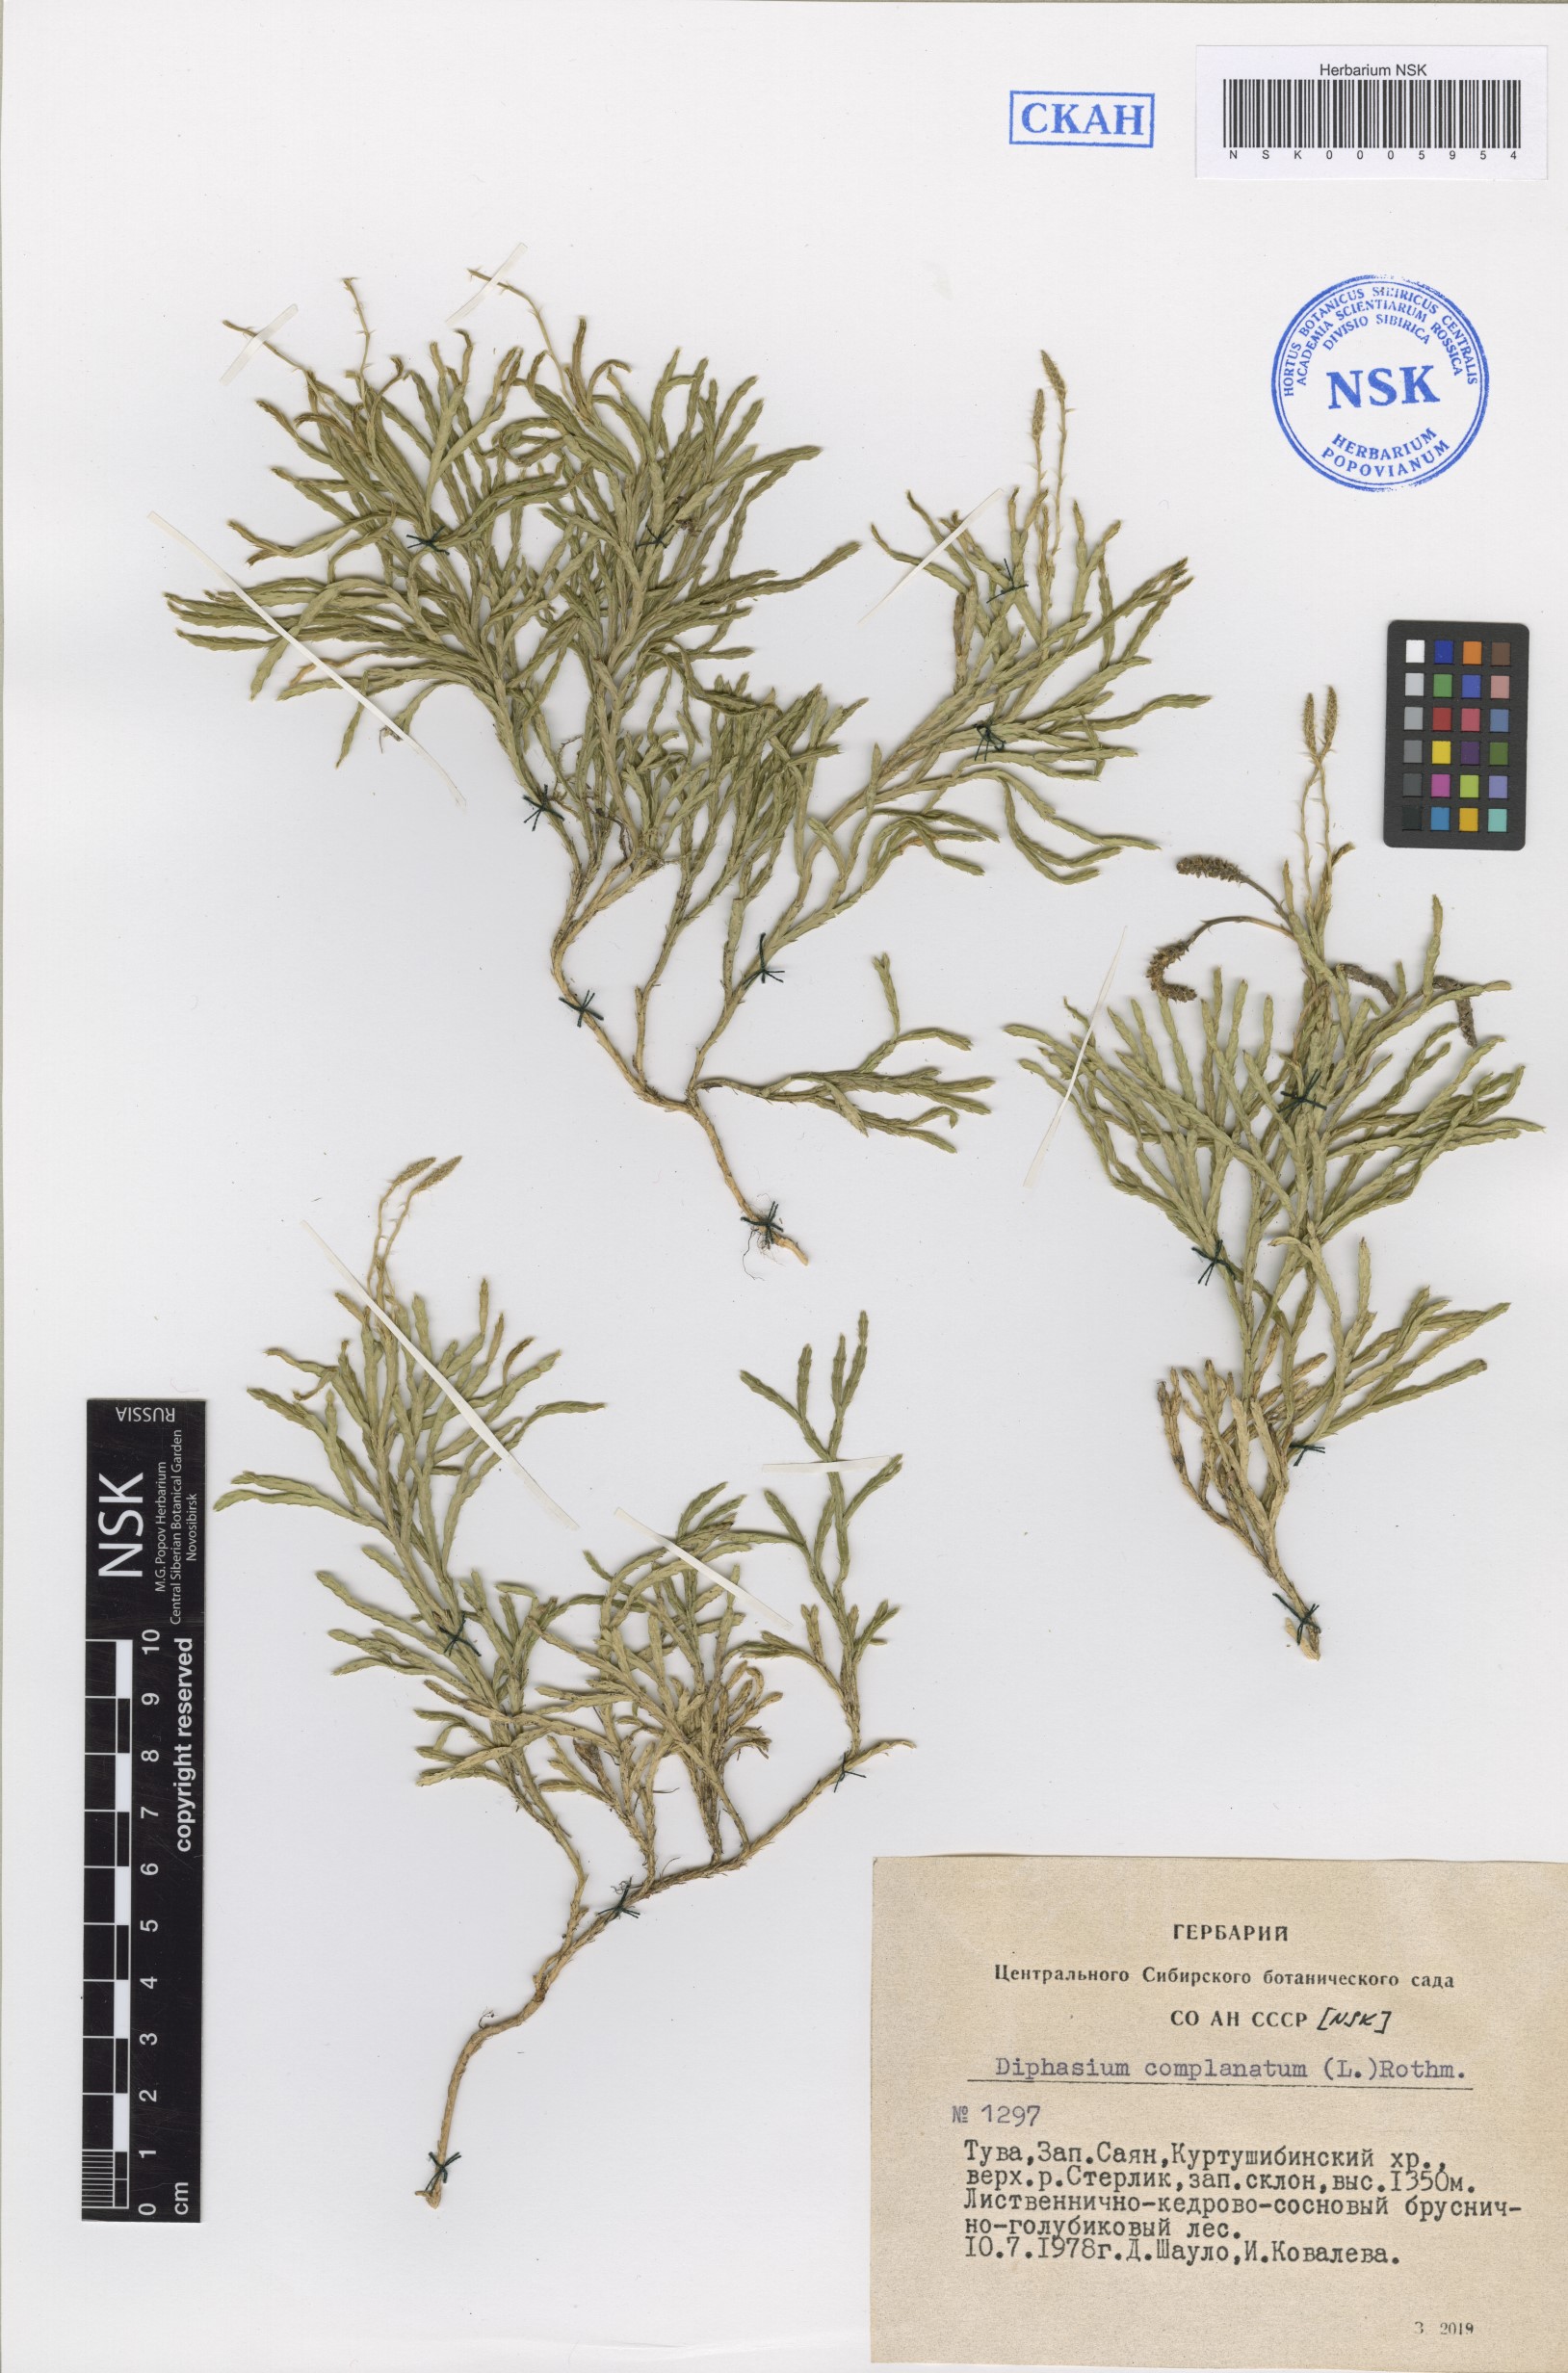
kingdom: Plantae
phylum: Tracheophyta
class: Lycopodiopsida
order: Lycopodiales
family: Lycopodiaceae
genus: Diphasiastrum
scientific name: Diphasiastrum complanatum
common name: Northern running-pine
